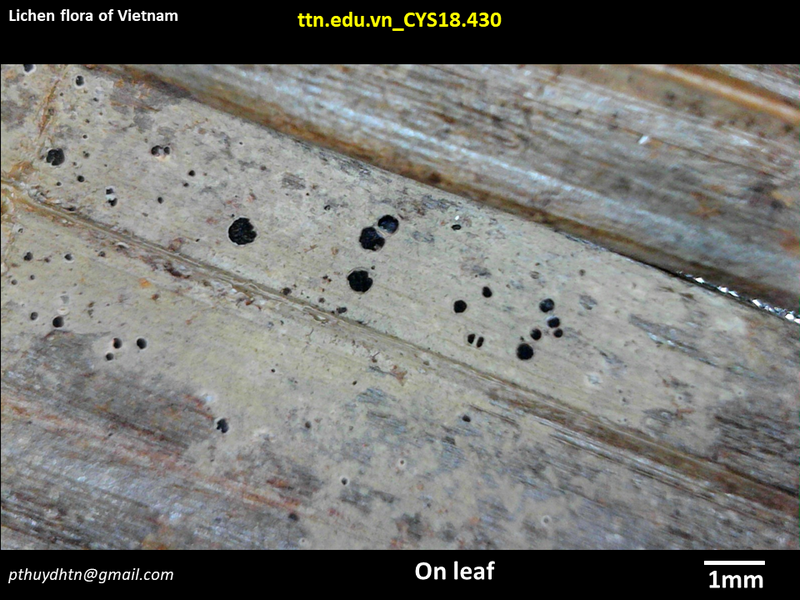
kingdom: Fungi
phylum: Ascomycota
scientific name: Ascomycota
